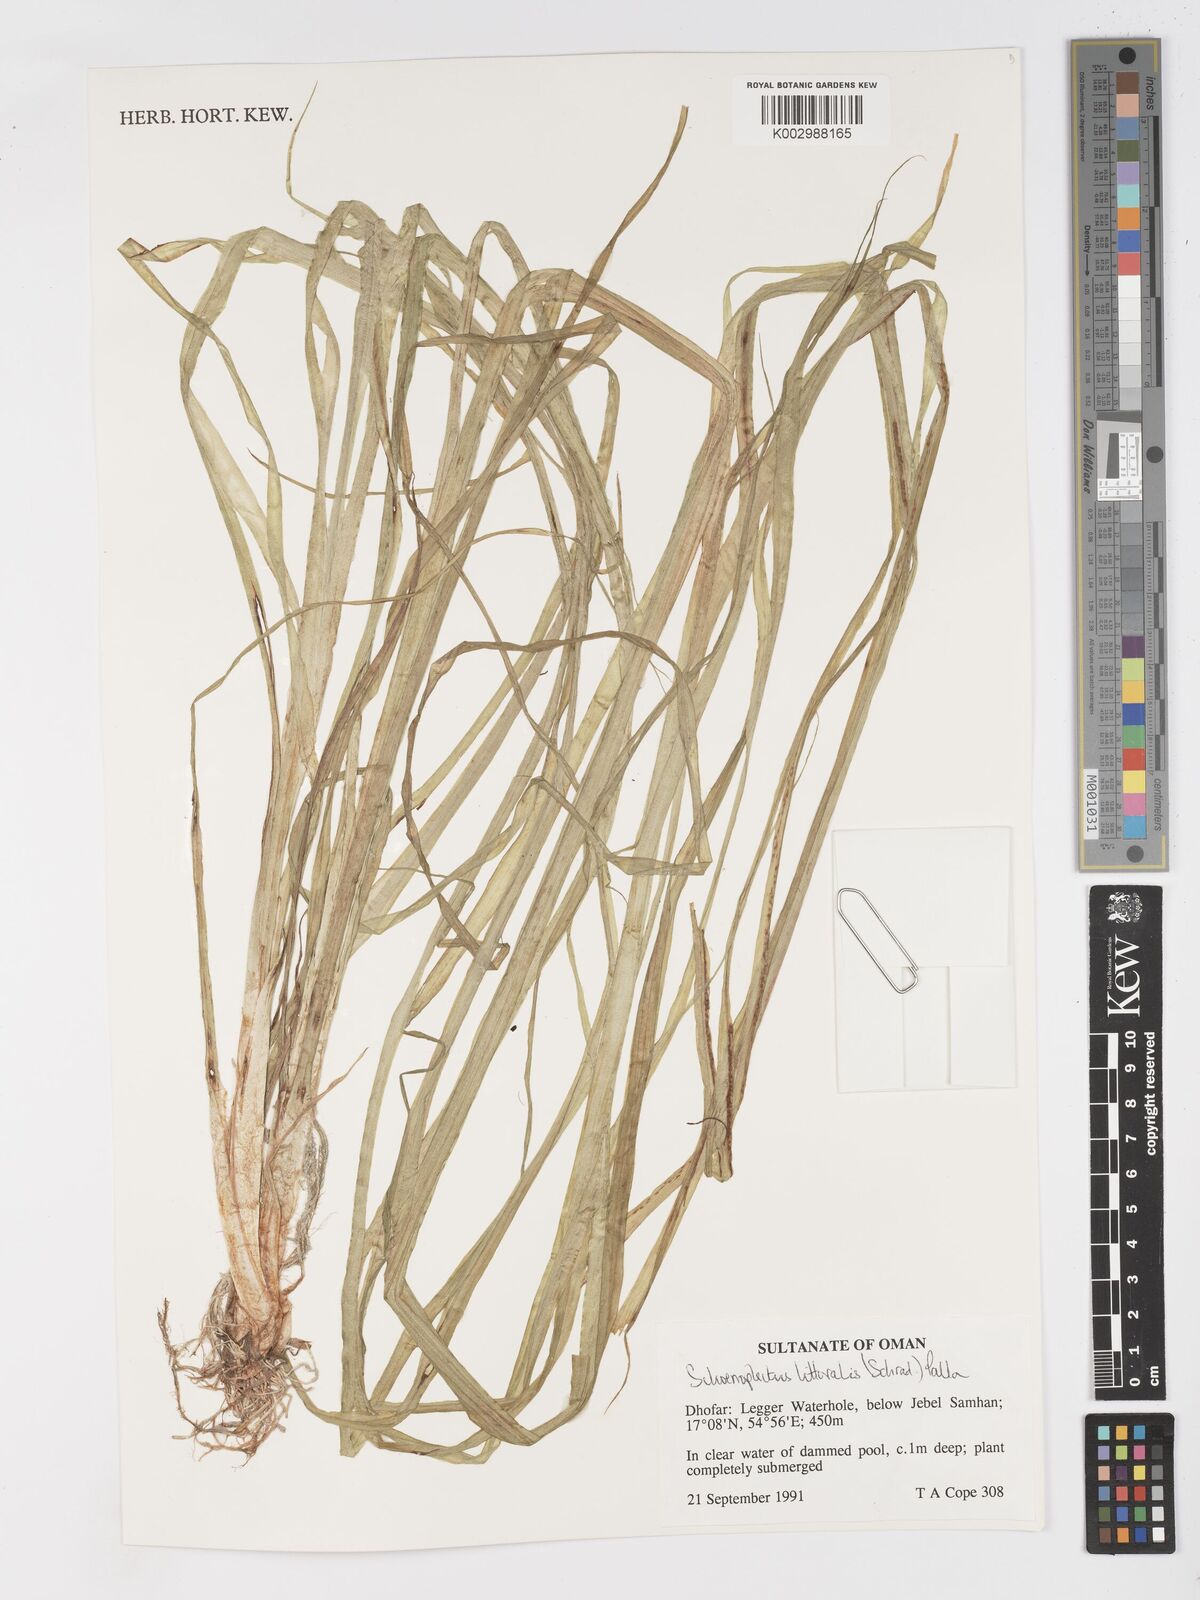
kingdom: Plantae
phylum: Tracheophyta
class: Liliopsida
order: Poales
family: Cyperaceae
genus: Schoenoplectus
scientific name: Schoenoplectus litoralis
